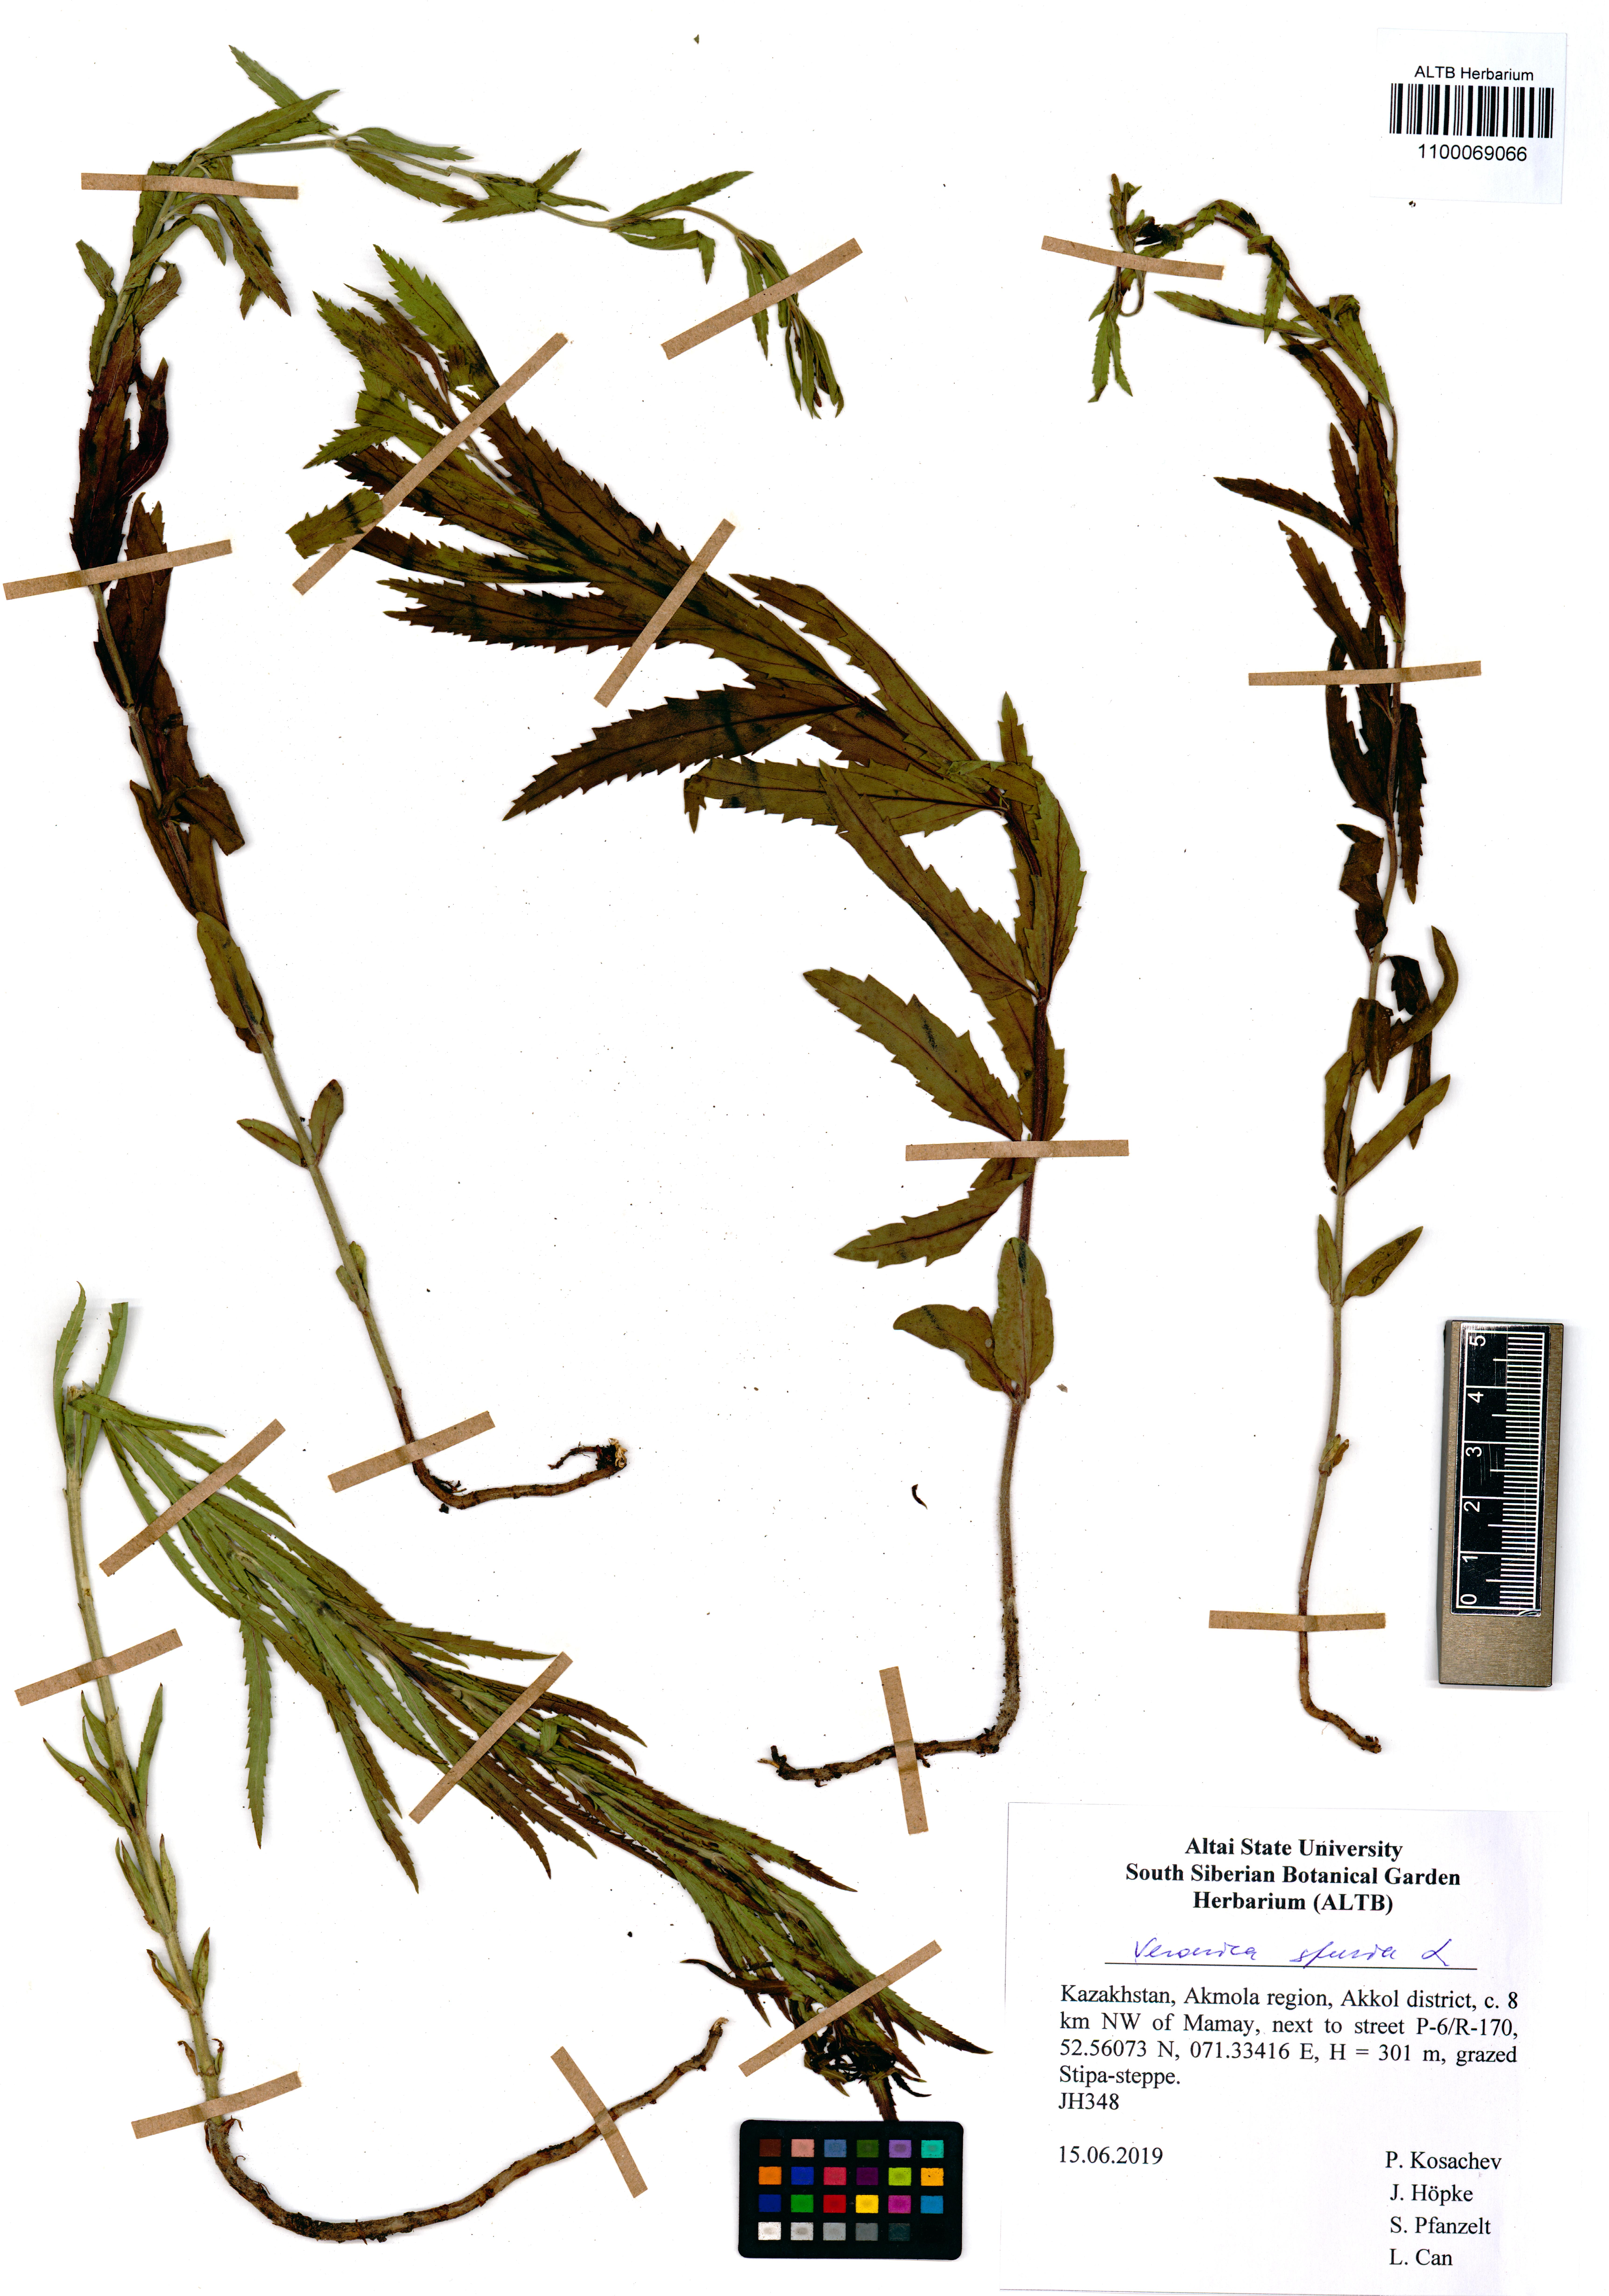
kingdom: Plantae
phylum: Tracheophyta
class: Magnoliopsida
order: Lamiales
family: Plantaginaceae
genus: Veronica
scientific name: Veronica spuria
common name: Bastard speedwell
